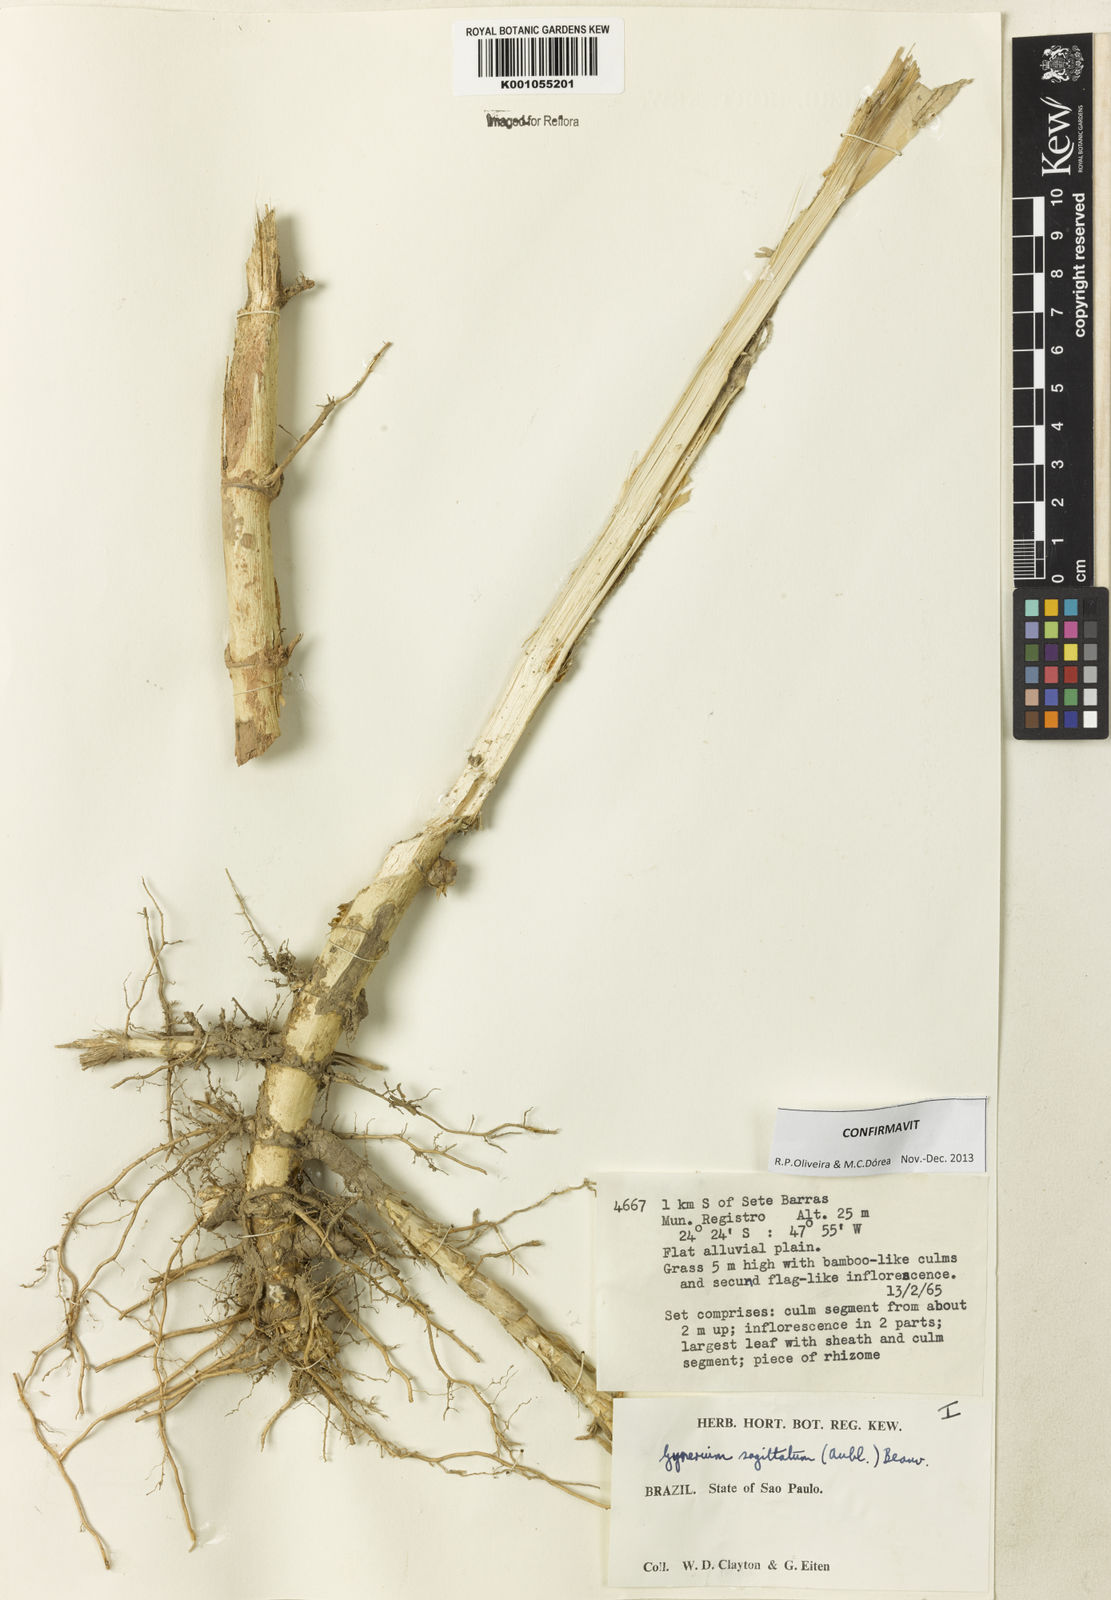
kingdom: Plantae
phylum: Tracheophyta
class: Liliopsida
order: Poales
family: Poaceae
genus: Gynerium
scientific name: Gynerium sagittatum
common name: Wild cane
